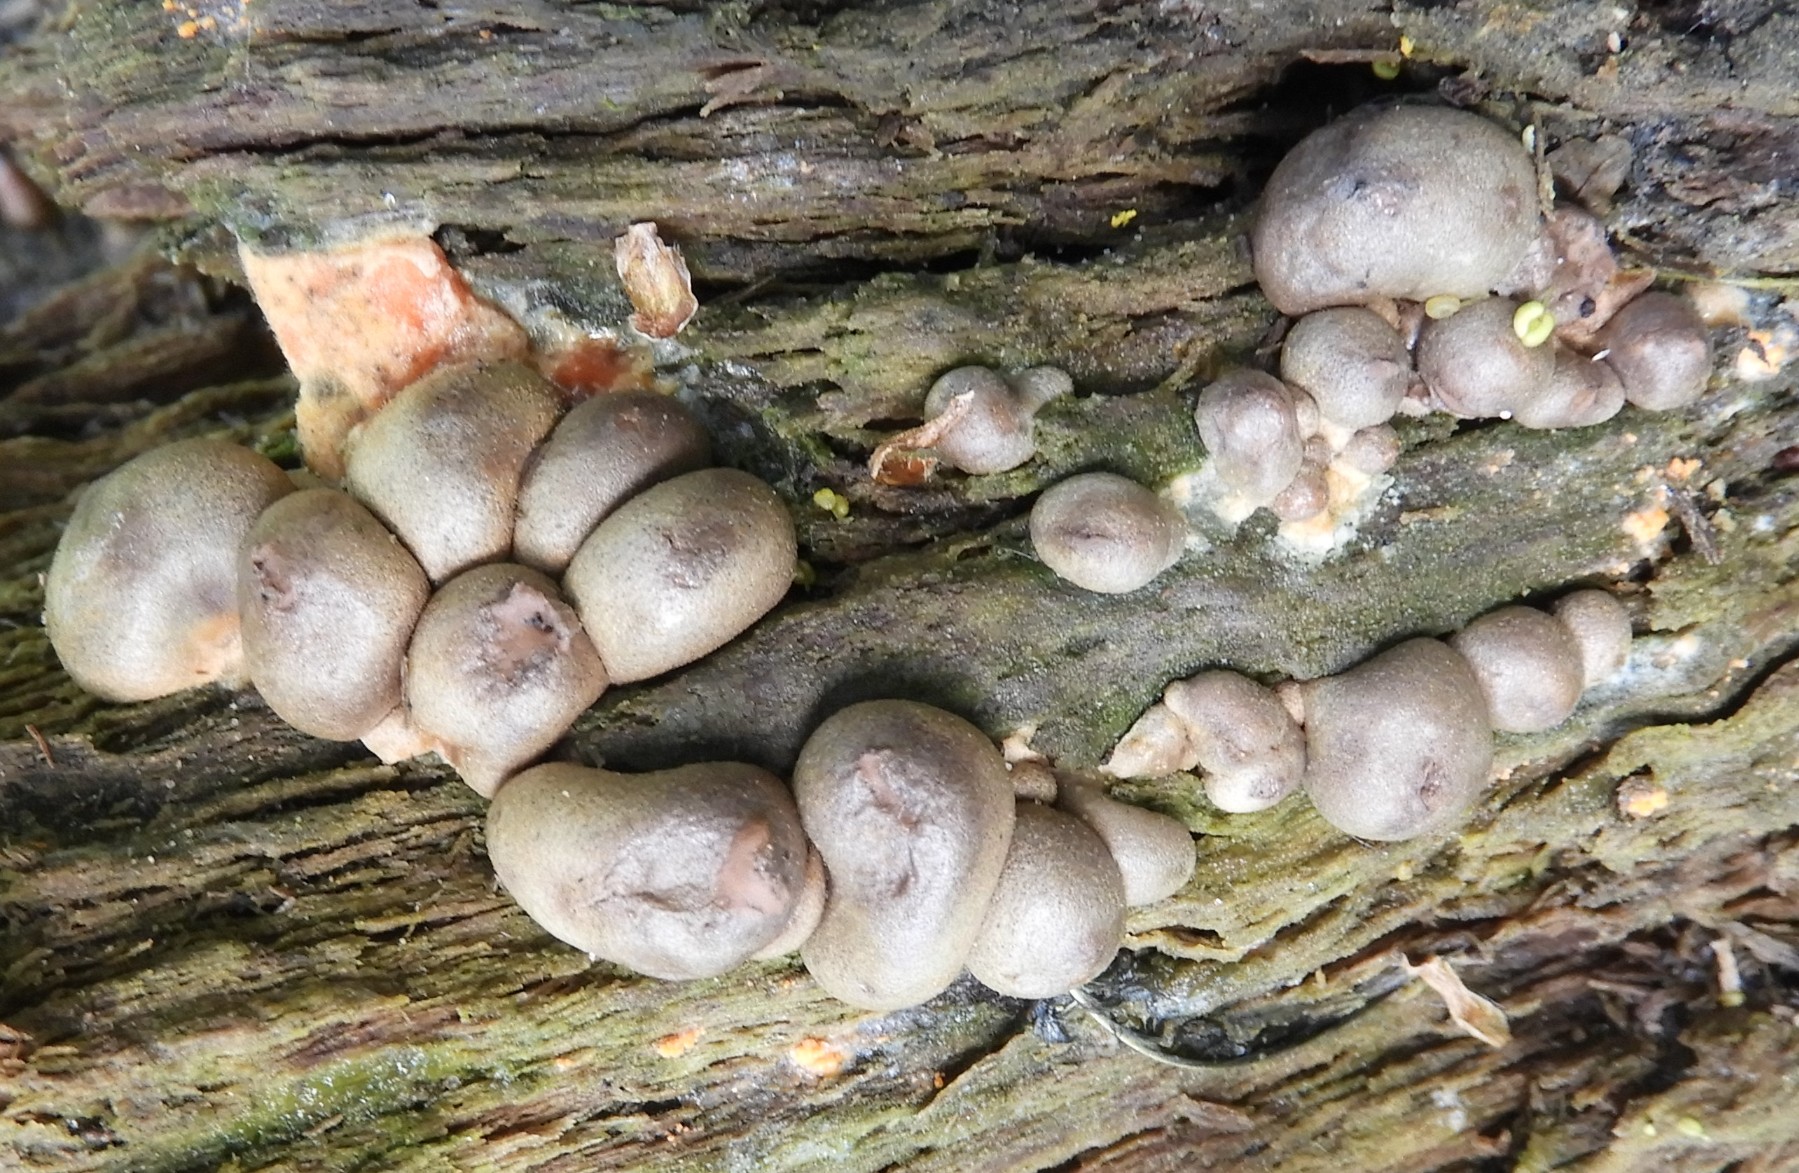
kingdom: Protozoa
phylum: Mycetozoa
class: Myxomycetes
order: Cribrariales
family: Tubiferaceae
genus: Lycogala
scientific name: Lycogala epidendrum
